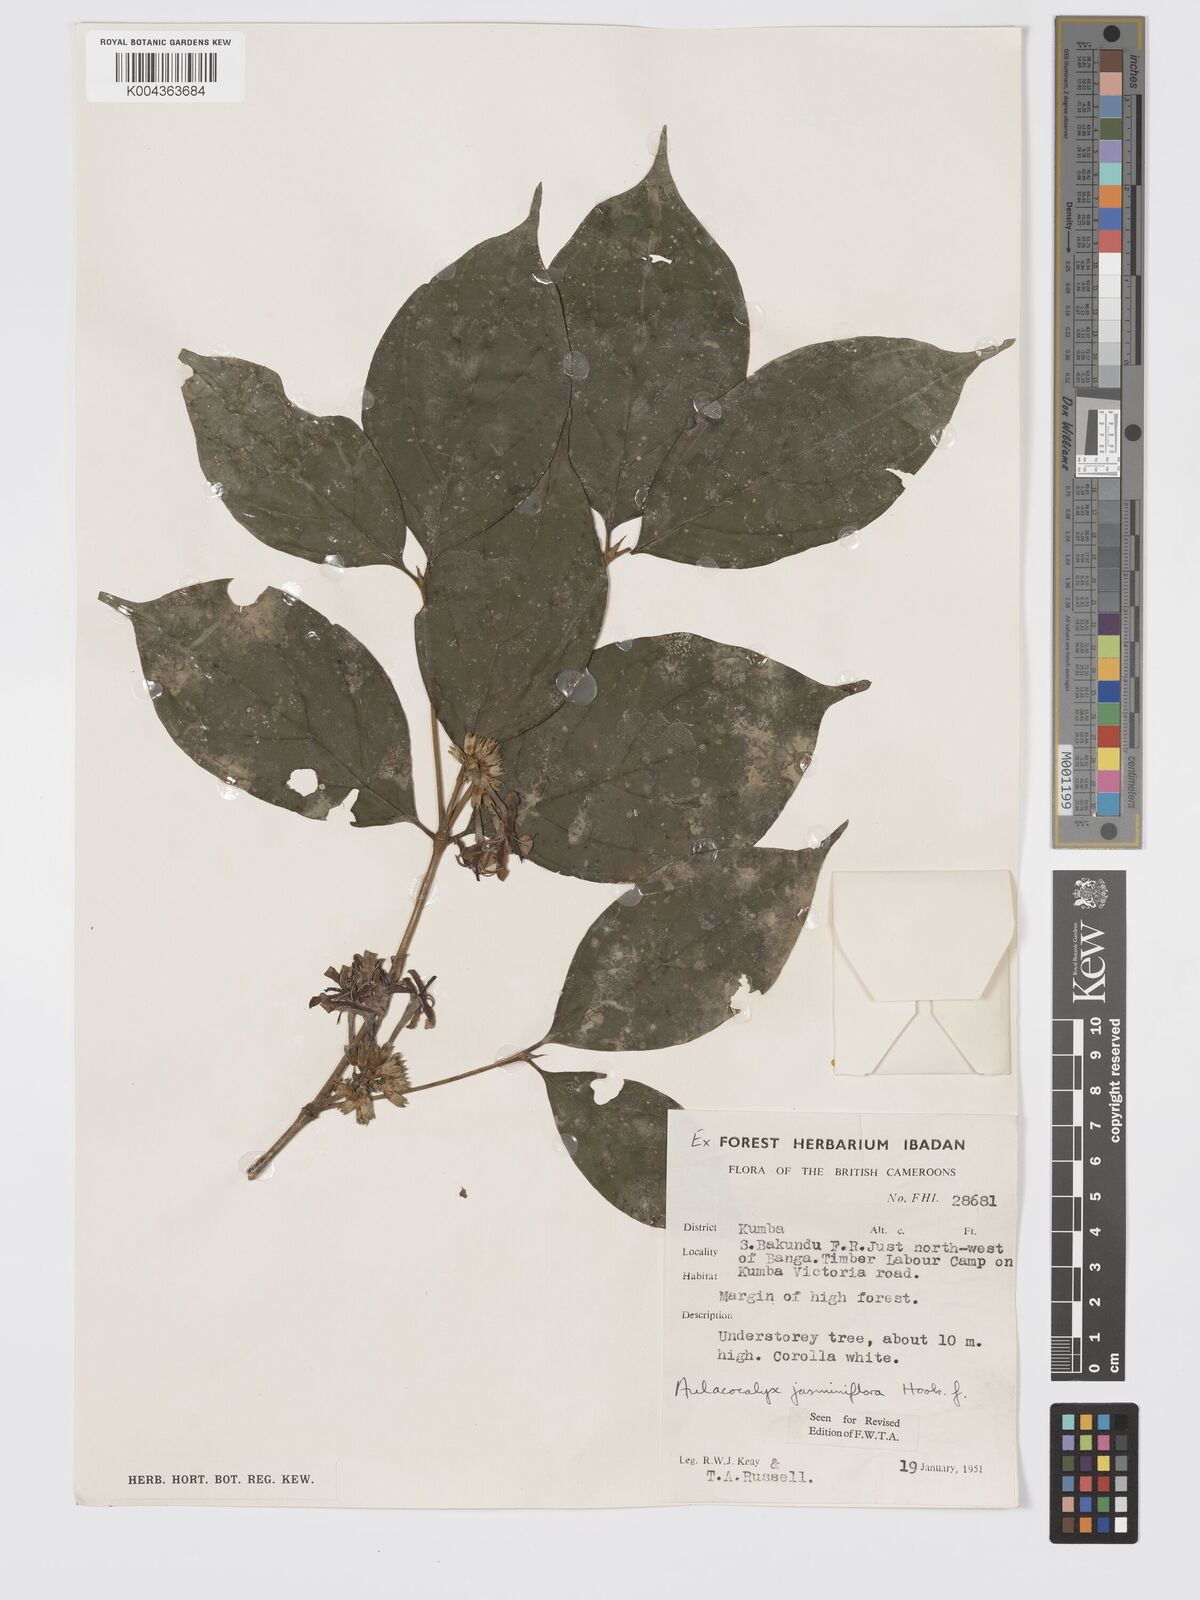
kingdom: Plantae
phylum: Tracheophyta
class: Magnoliopsida
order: Gentianales
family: Rubiaceae
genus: Aulacocalyx
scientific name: Aulacocalyx jasminiflora
